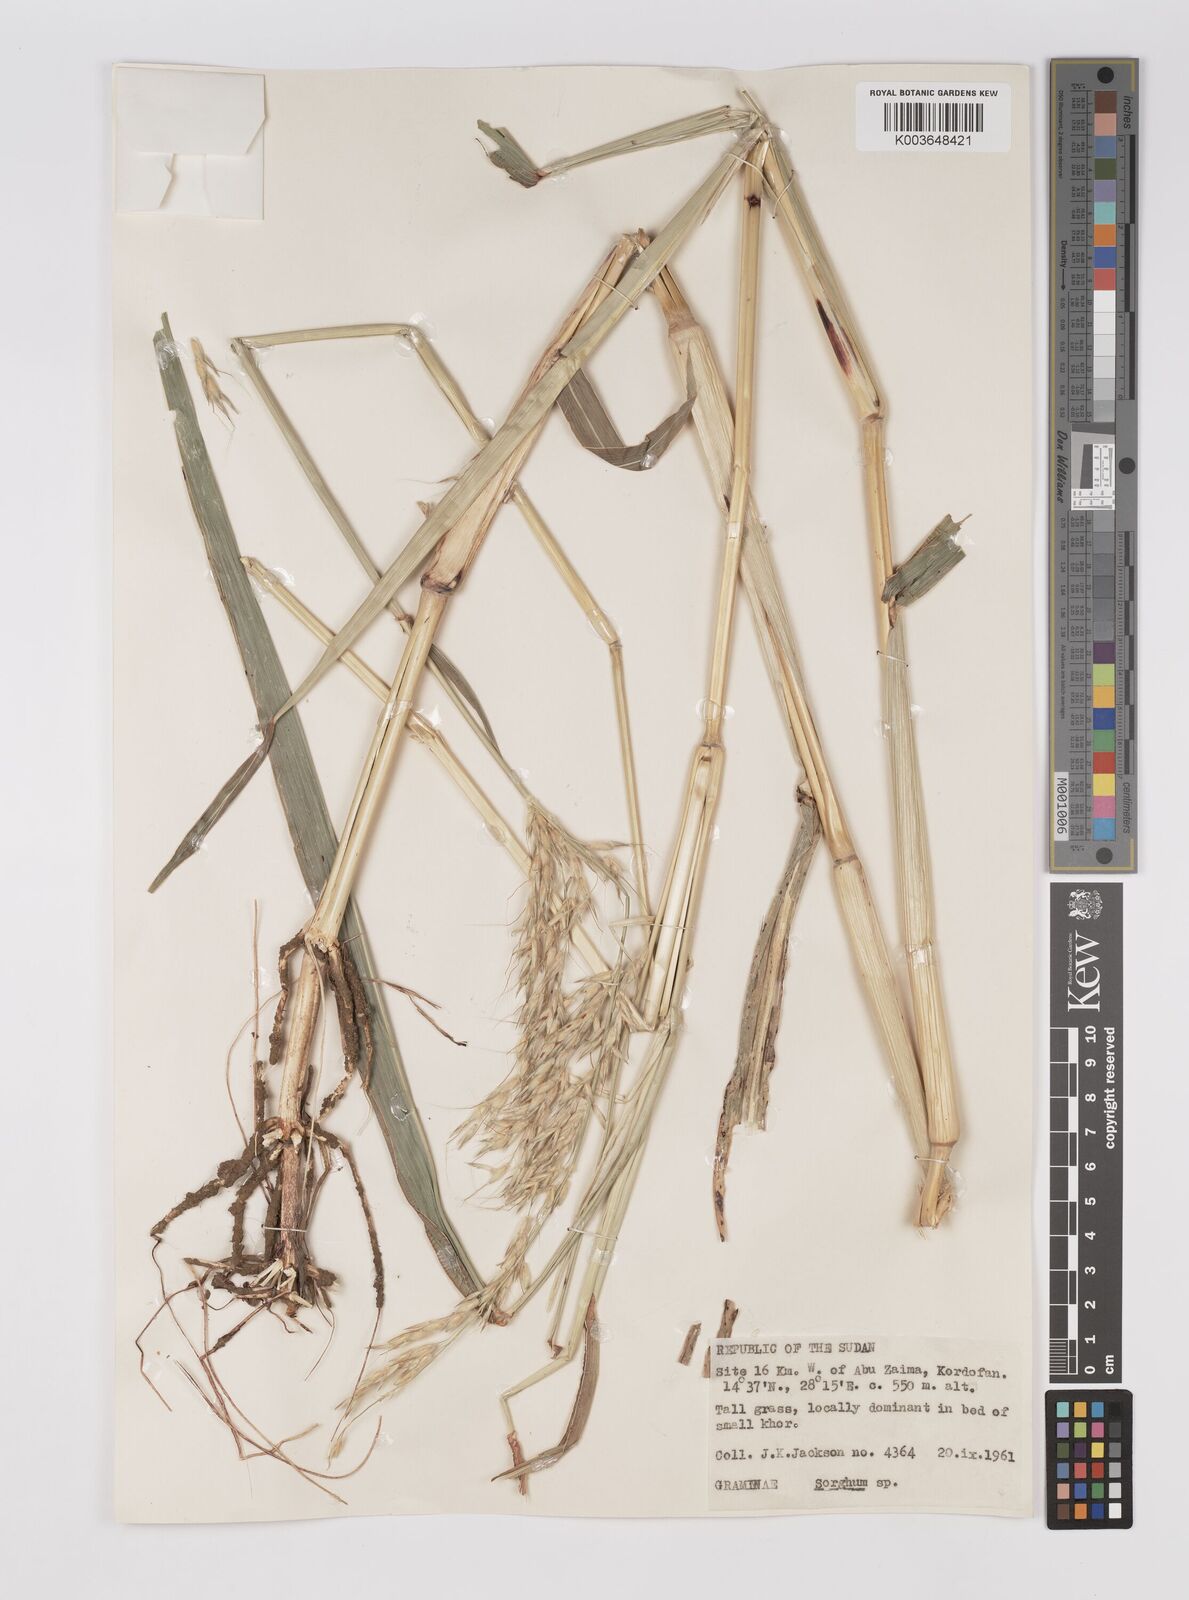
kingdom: Plantae
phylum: Tracheophyta
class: Liliopsida
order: Poales
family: Poaceae
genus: Sorghum
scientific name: Sorghum arundinaceum
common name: Sorghum
